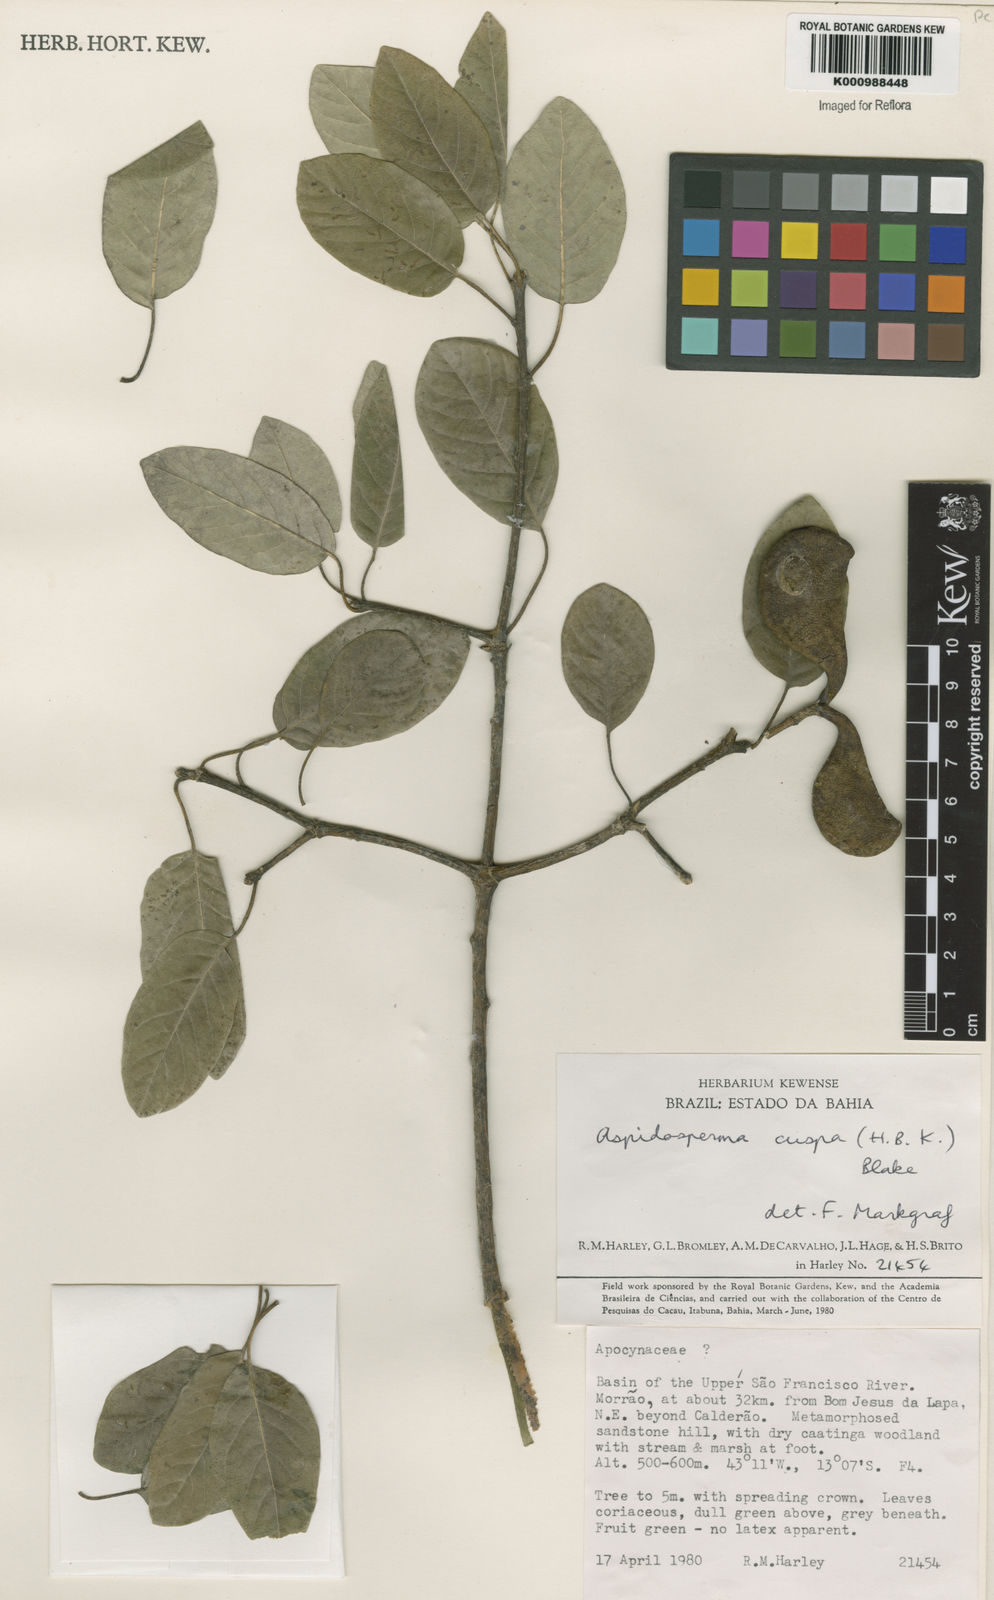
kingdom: Plantae
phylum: Tracheophyta
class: Magnoliopsida
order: Gentianales
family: Apocynaceae
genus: Aspidosperma
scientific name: Aspidosperma cuspa
